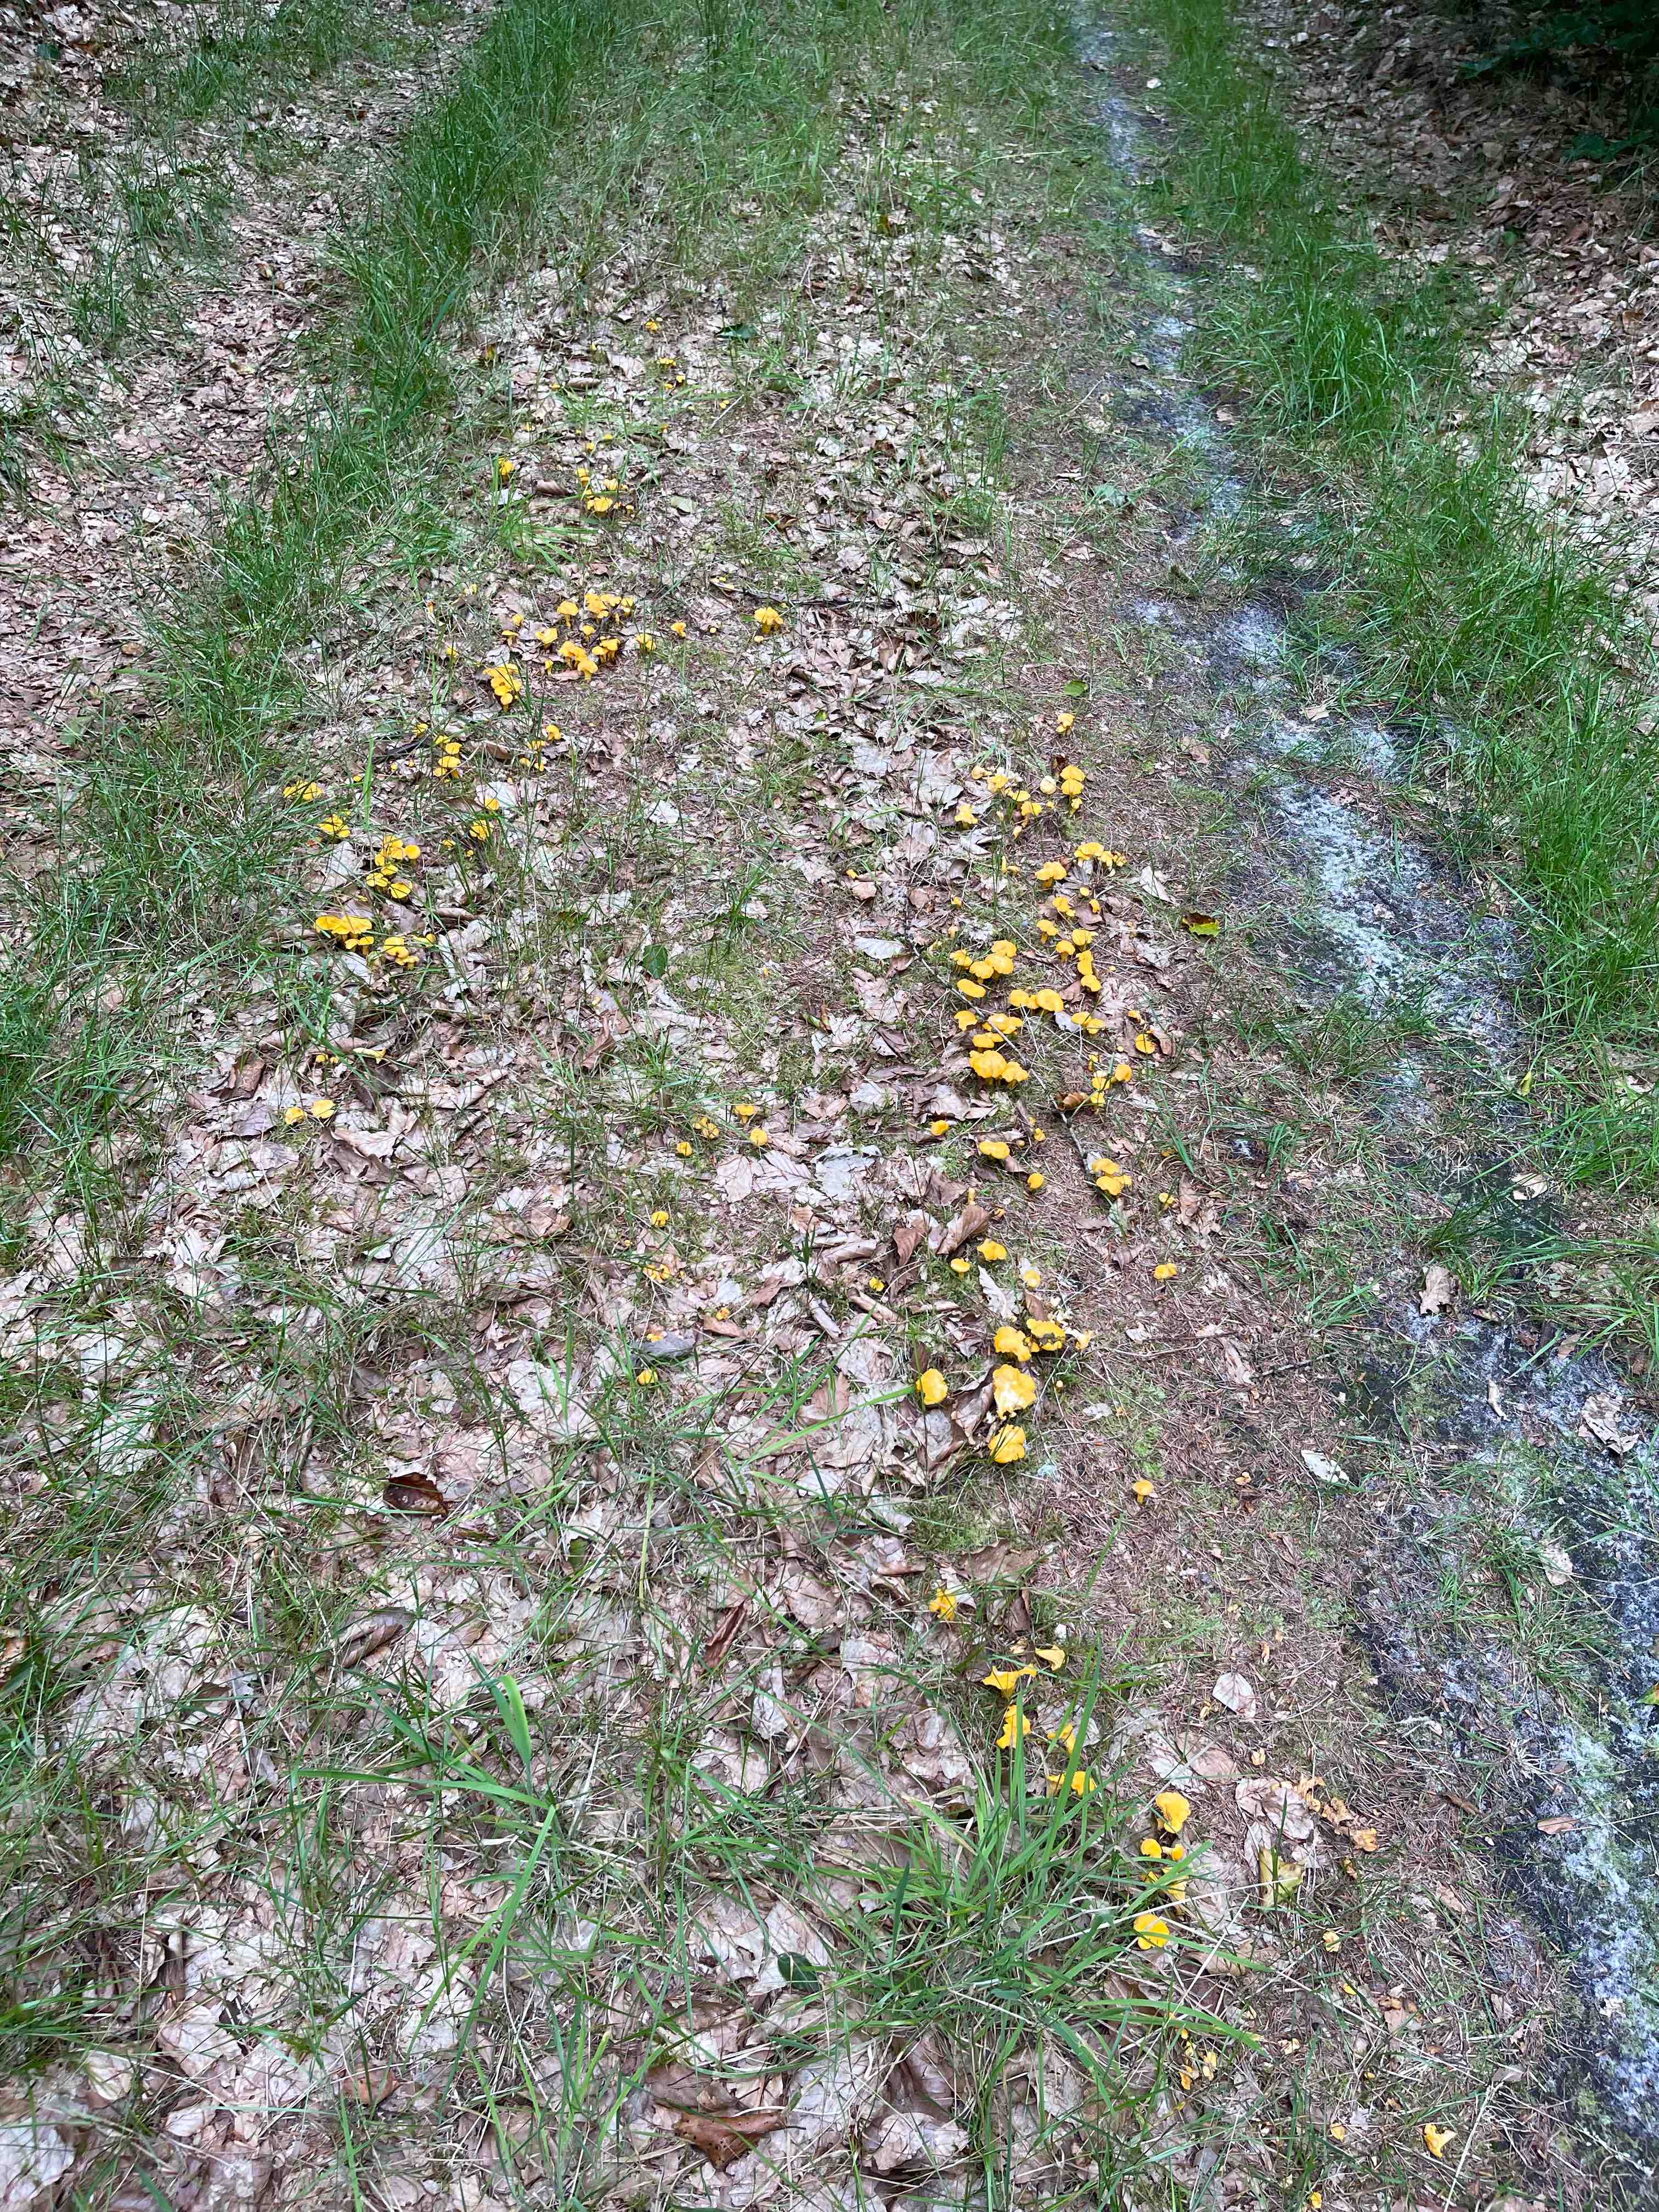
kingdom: Fungi
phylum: Basidiomycota
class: Agaricomycetes
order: Cantharellales
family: Hydnaceae
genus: Cantharellus
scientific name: Cantharellus cibarius
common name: almindelig kantarel
